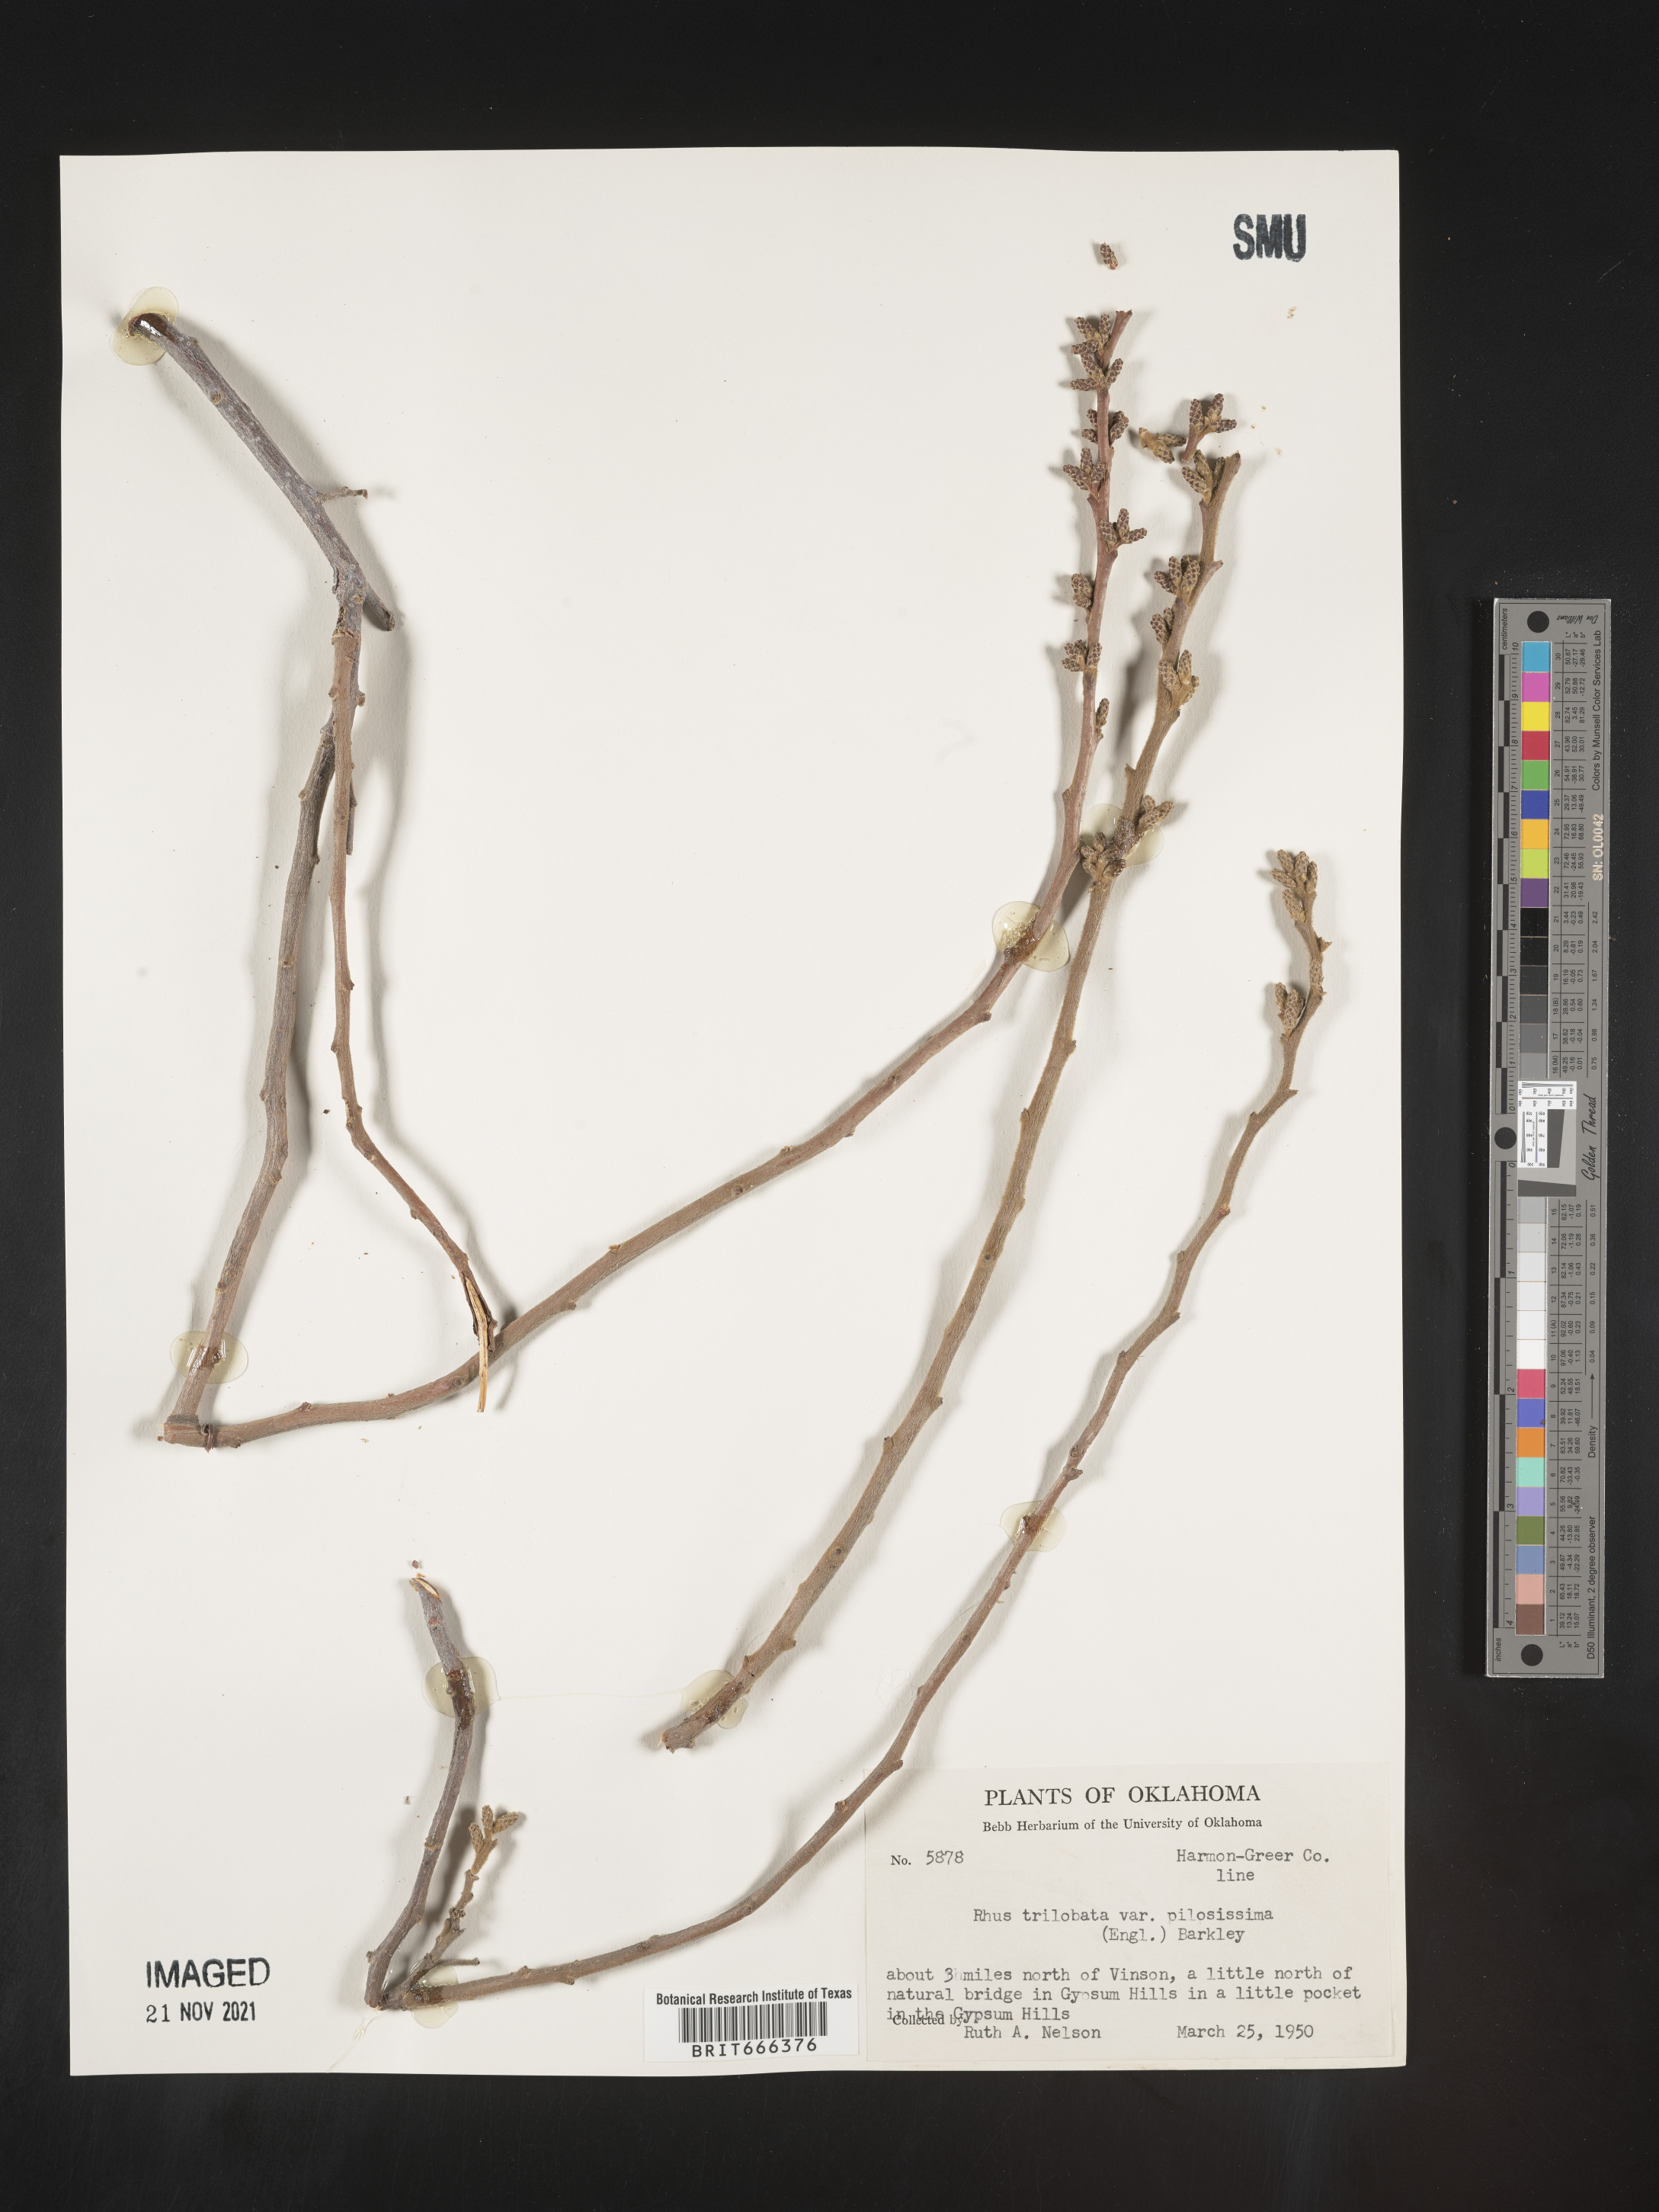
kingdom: Plantae
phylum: Tracheophyta
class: Magnoliopsida
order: Sapindales
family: Anacardiaceae
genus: Rhus
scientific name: Rhus trilobata
